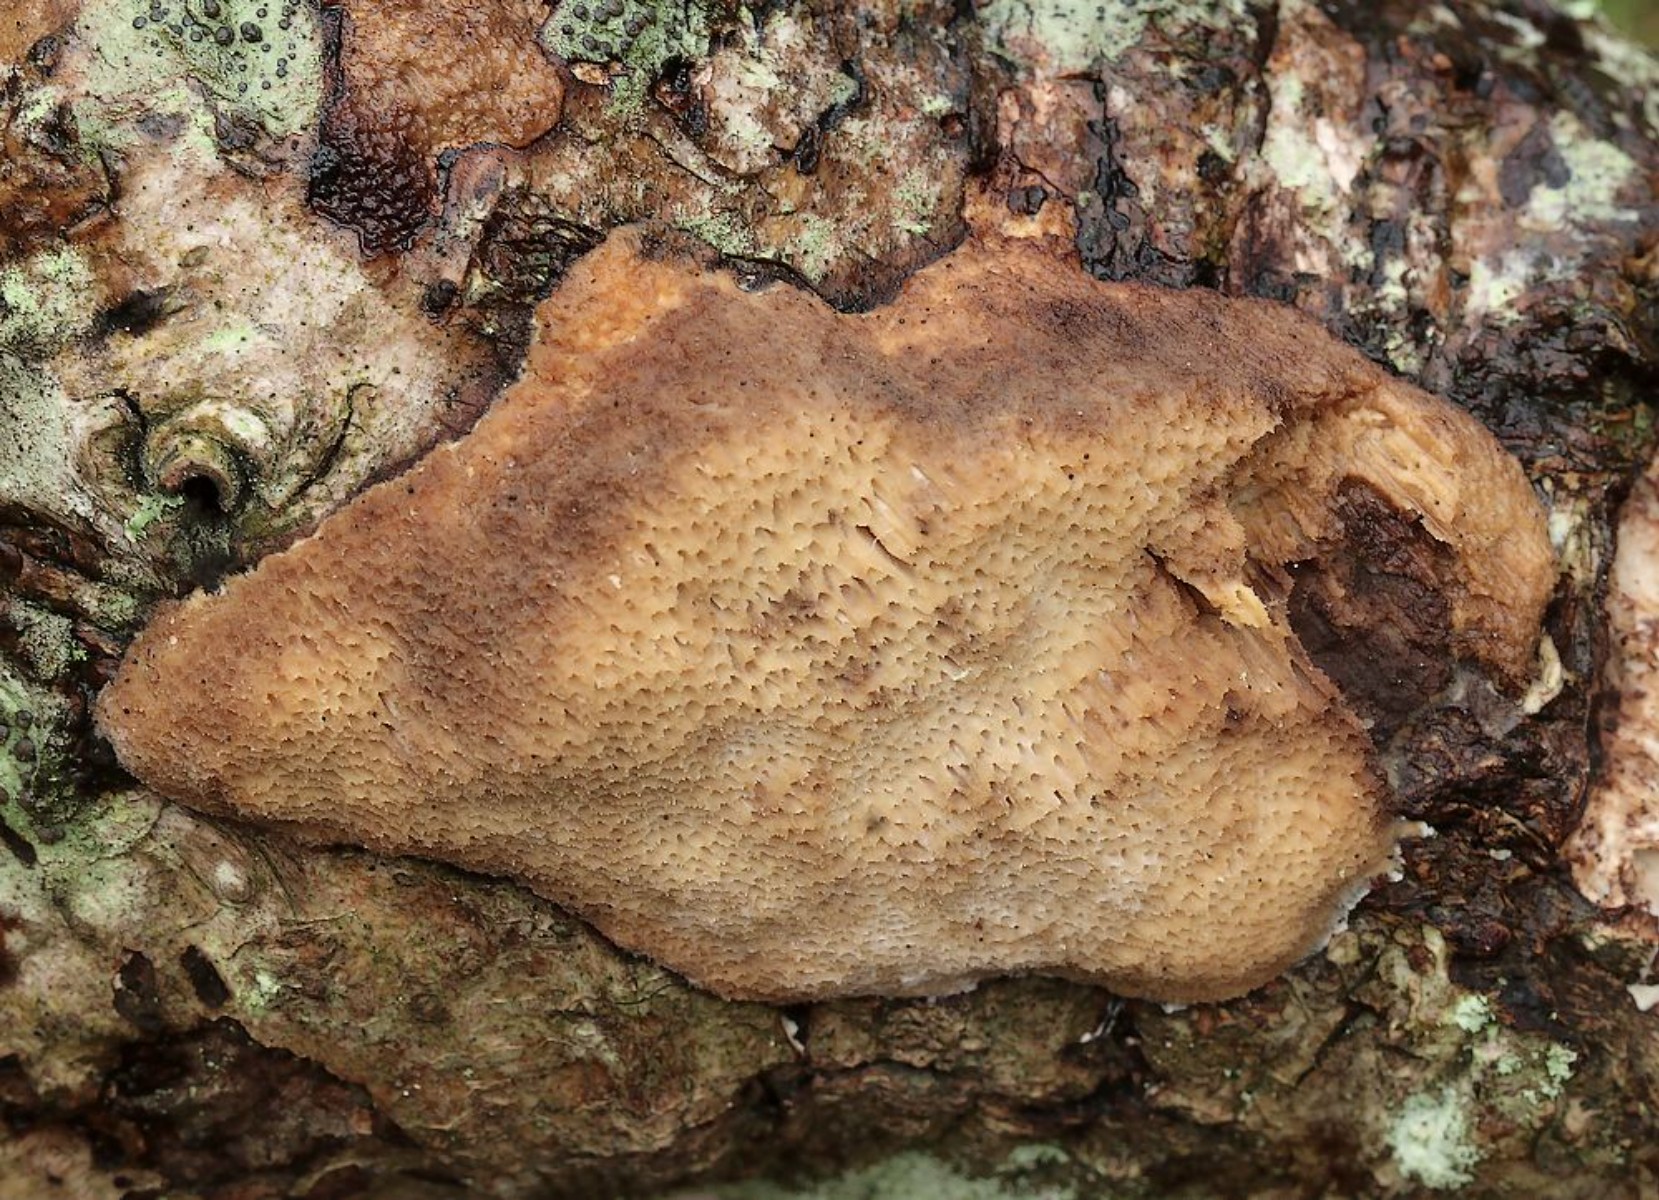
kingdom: Fungi
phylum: Basidiomycota
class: Agaricomycetes
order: Polyporales
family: Polyporaceae
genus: Szczepkamyces
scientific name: Szczepkamyces campestris
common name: hasselporesvamp
